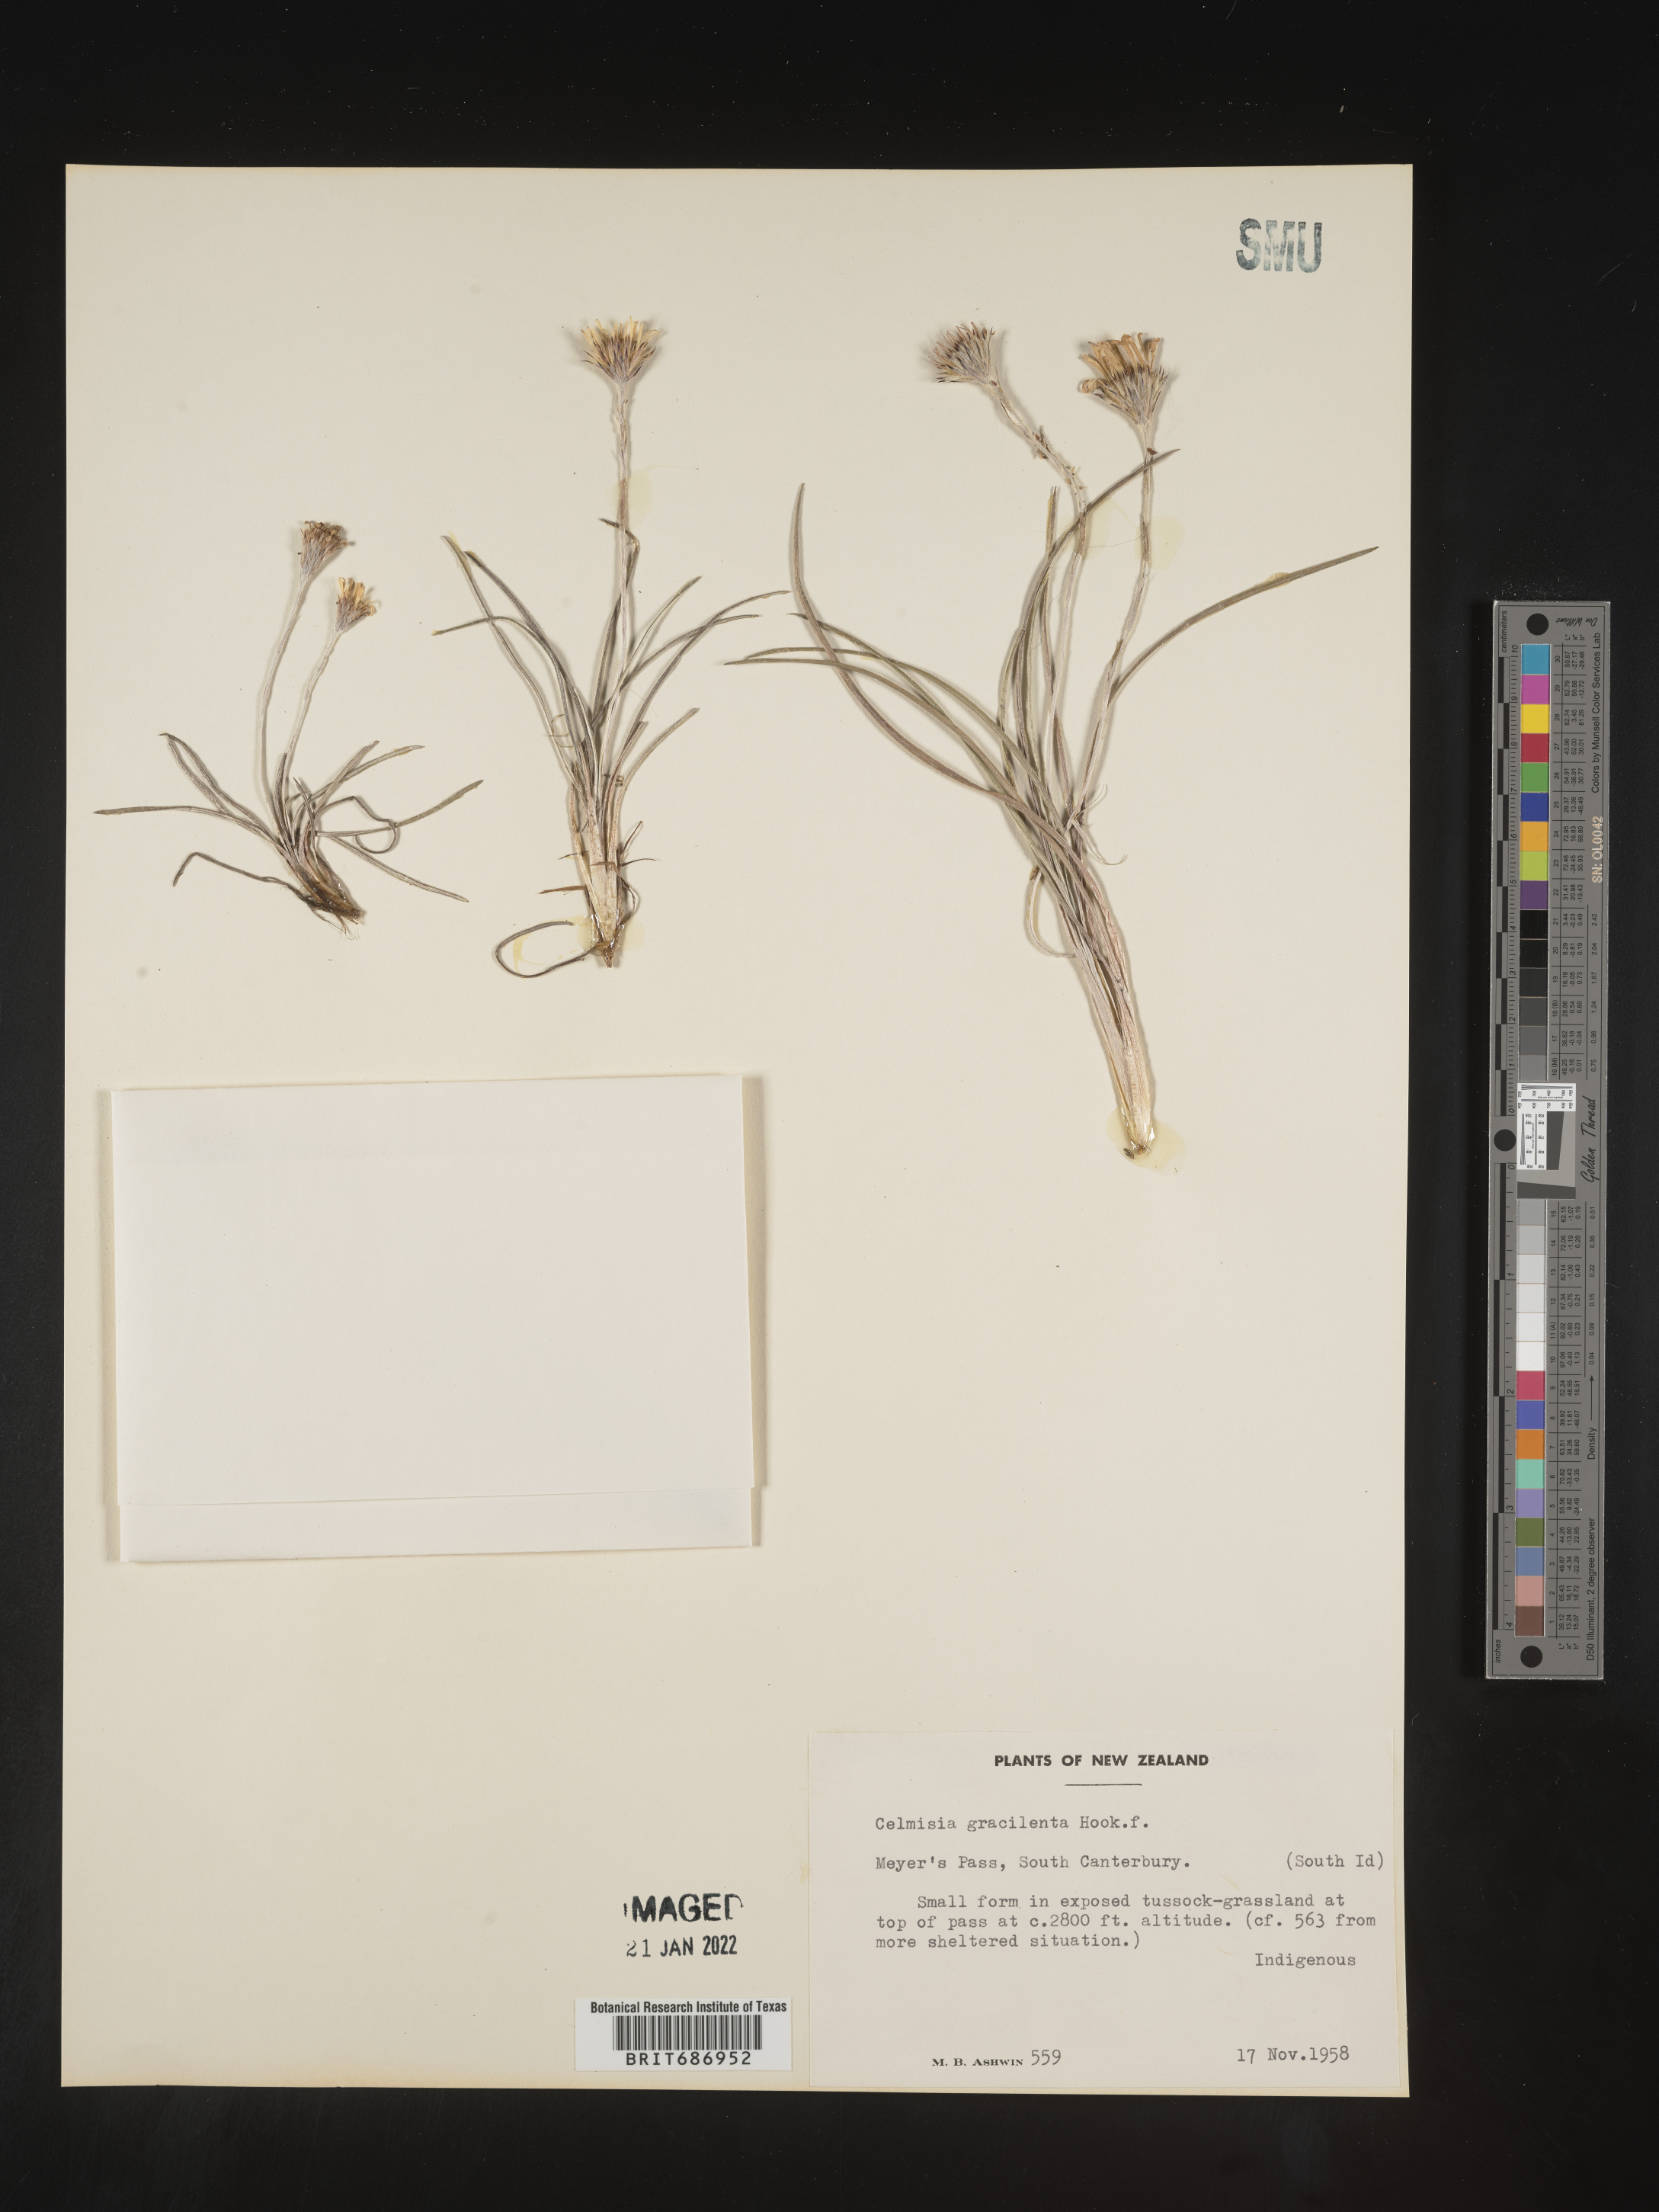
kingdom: Plantae
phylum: Tracheophyta
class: Magnoliopsida
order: Asterales
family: Asteraceae
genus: Celmisia
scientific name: Celmisia
